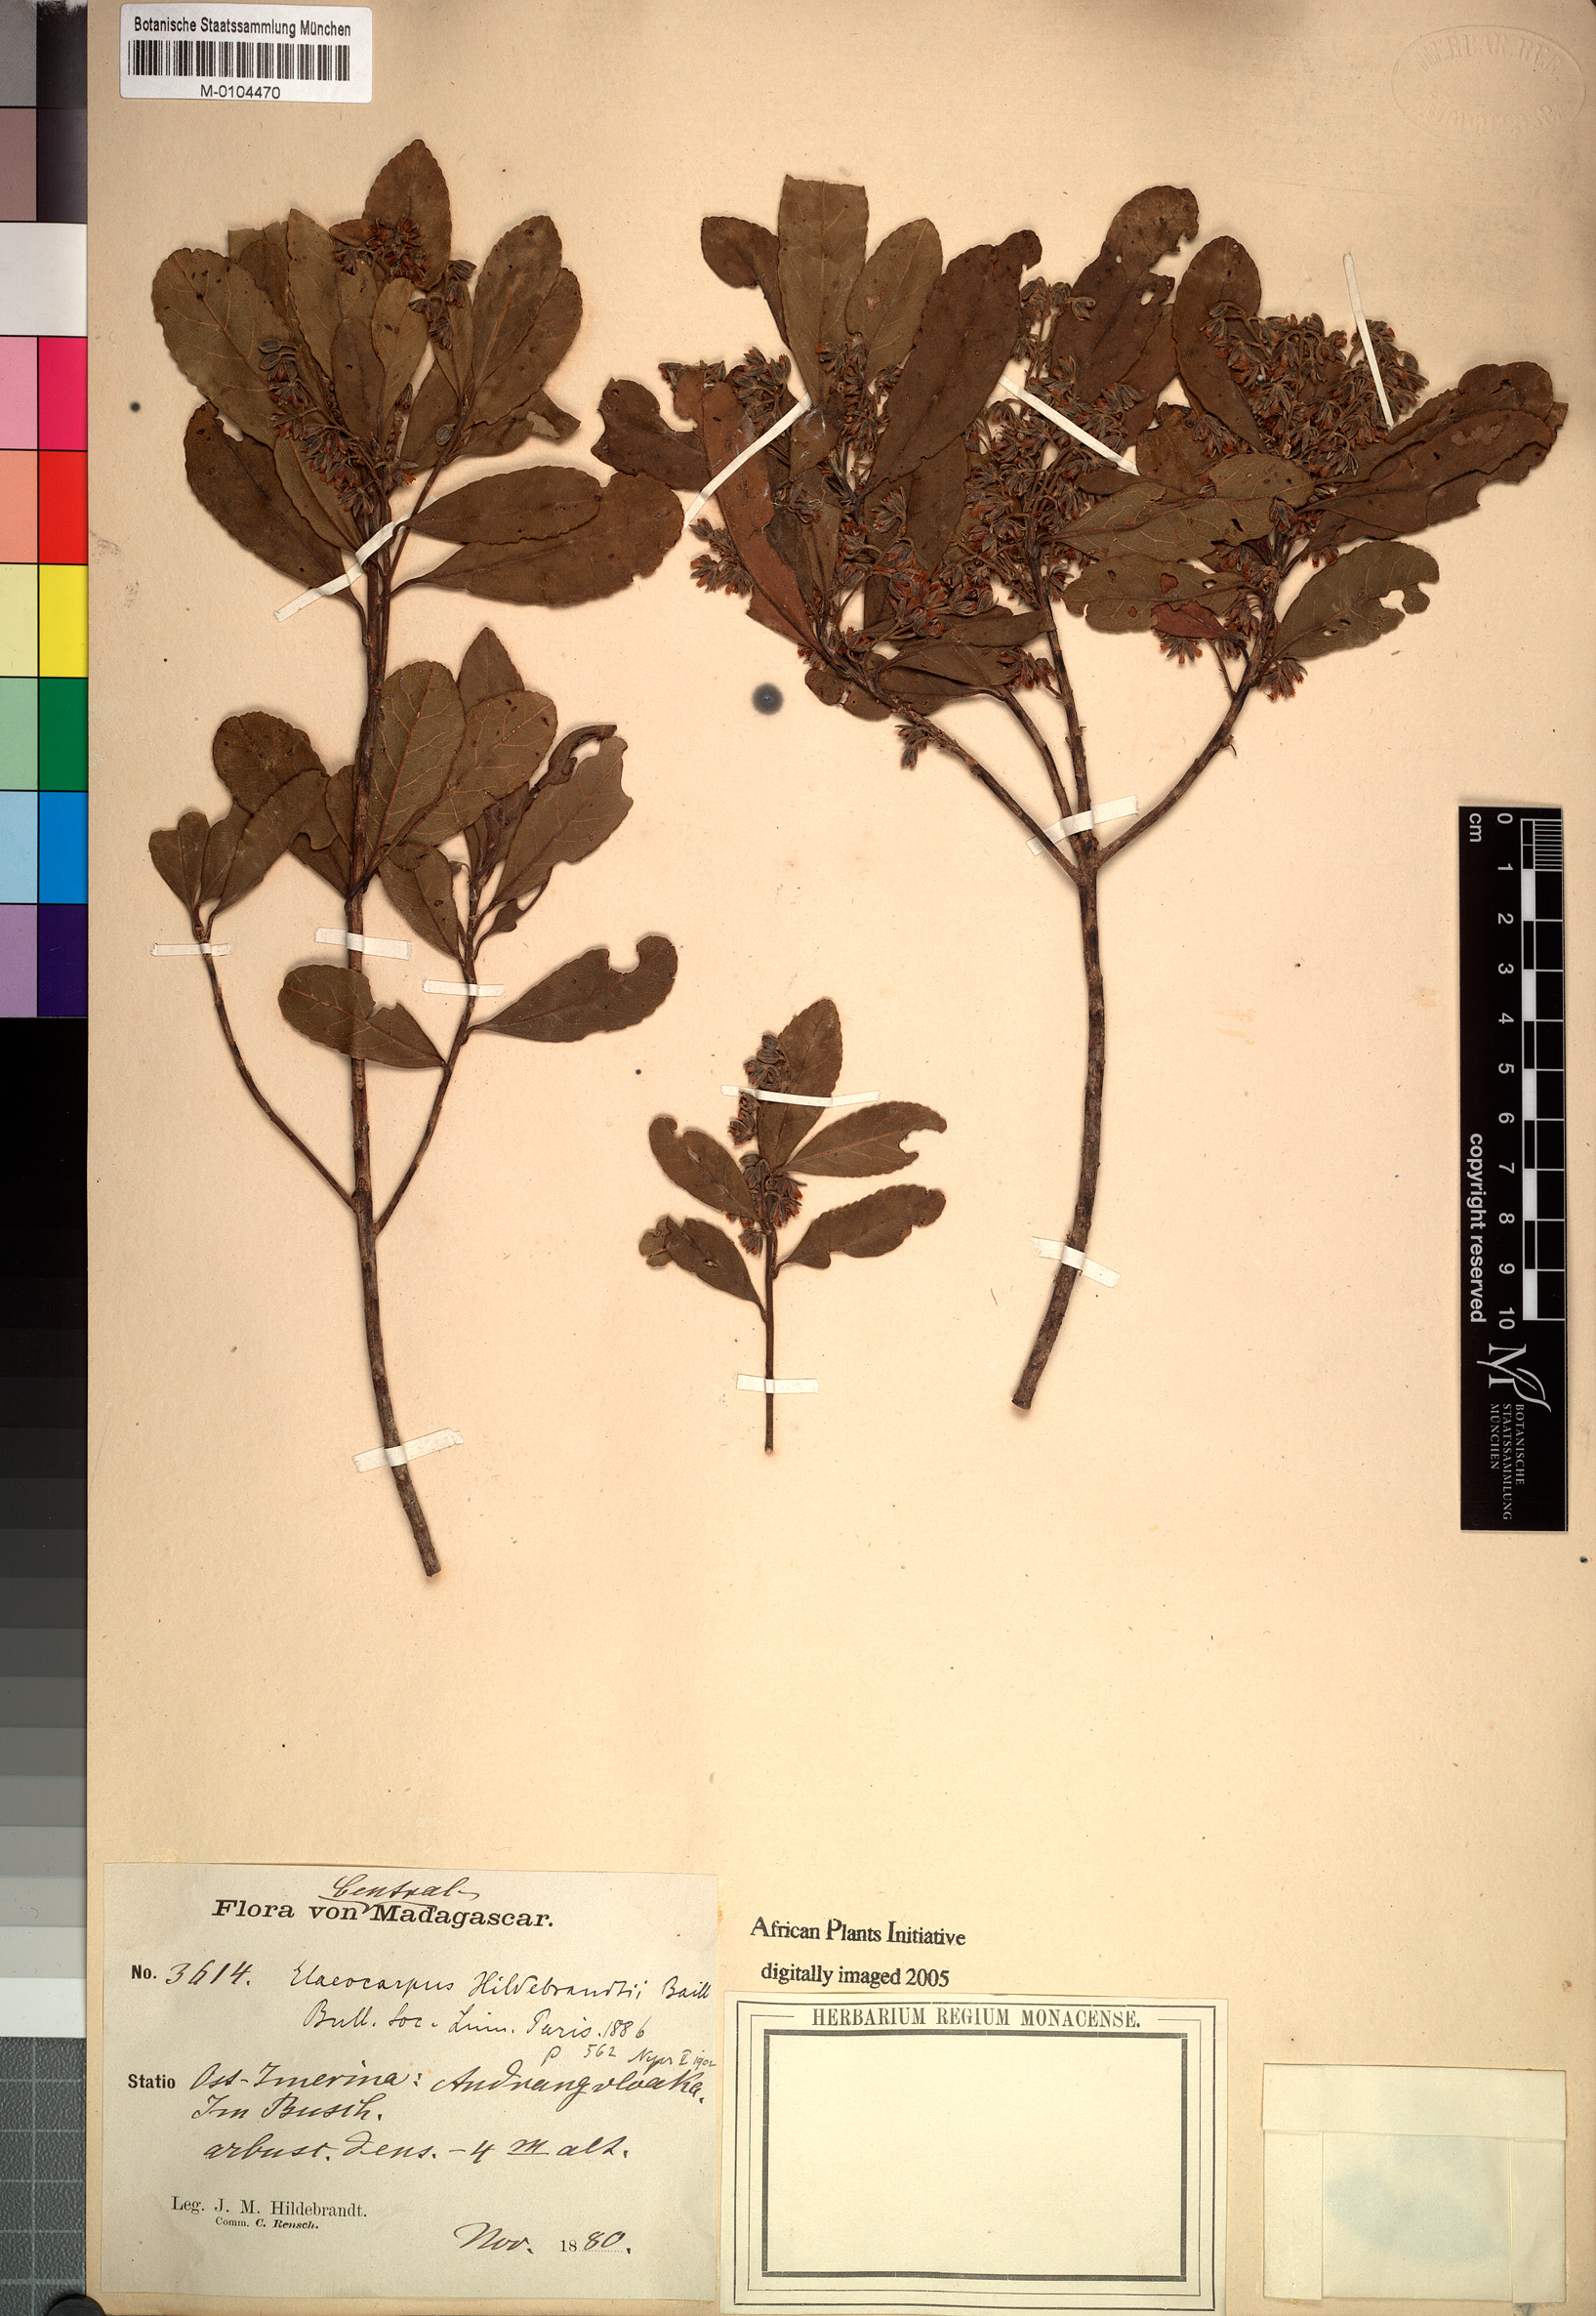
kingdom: Plantae
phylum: Tracheophyta
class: Magnoliopsida
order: Oxalidales
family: Elaeocarpaceae
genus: Elaeocarpus
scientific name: Elaeocarpus hildebrandtii
